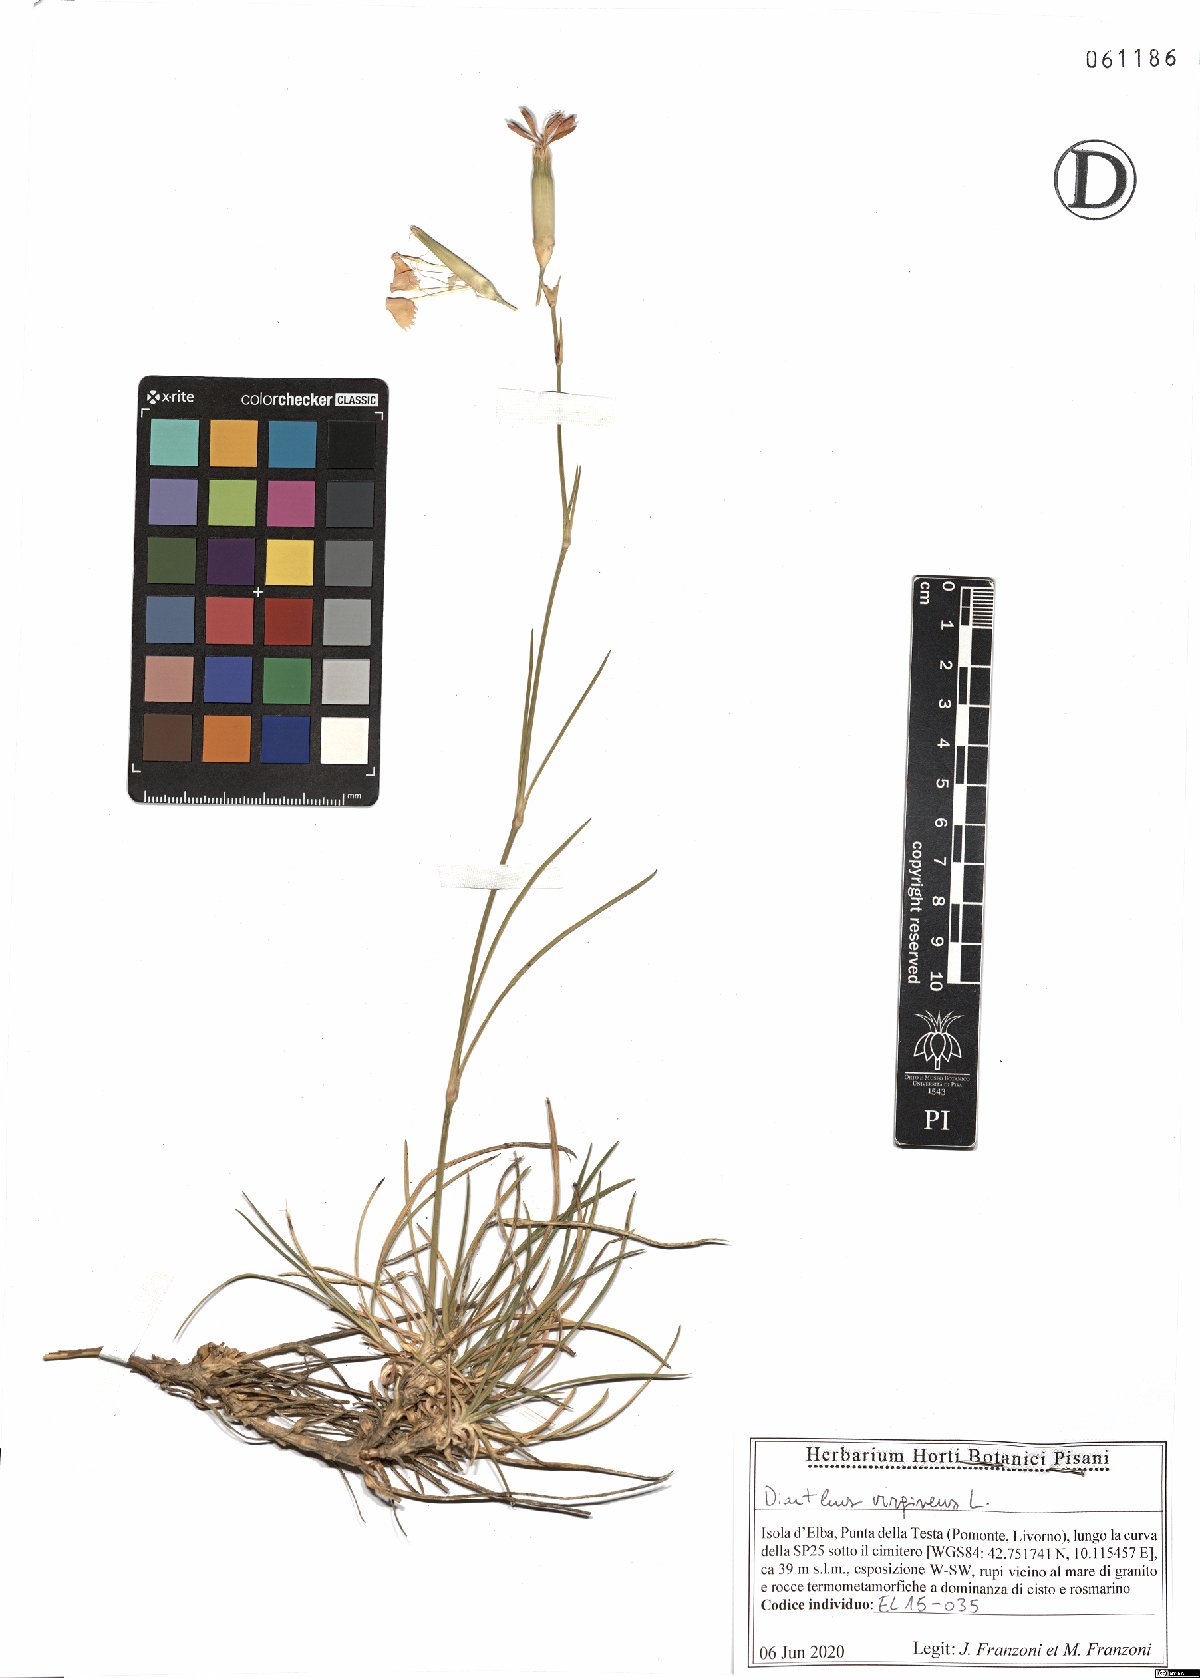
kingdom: Plantae
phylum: Tracheophyta
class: Magnoliopsida
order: Caryophyllales
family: Caryophyllaceae
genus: Dianthus
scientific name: Dianthus virgineus
